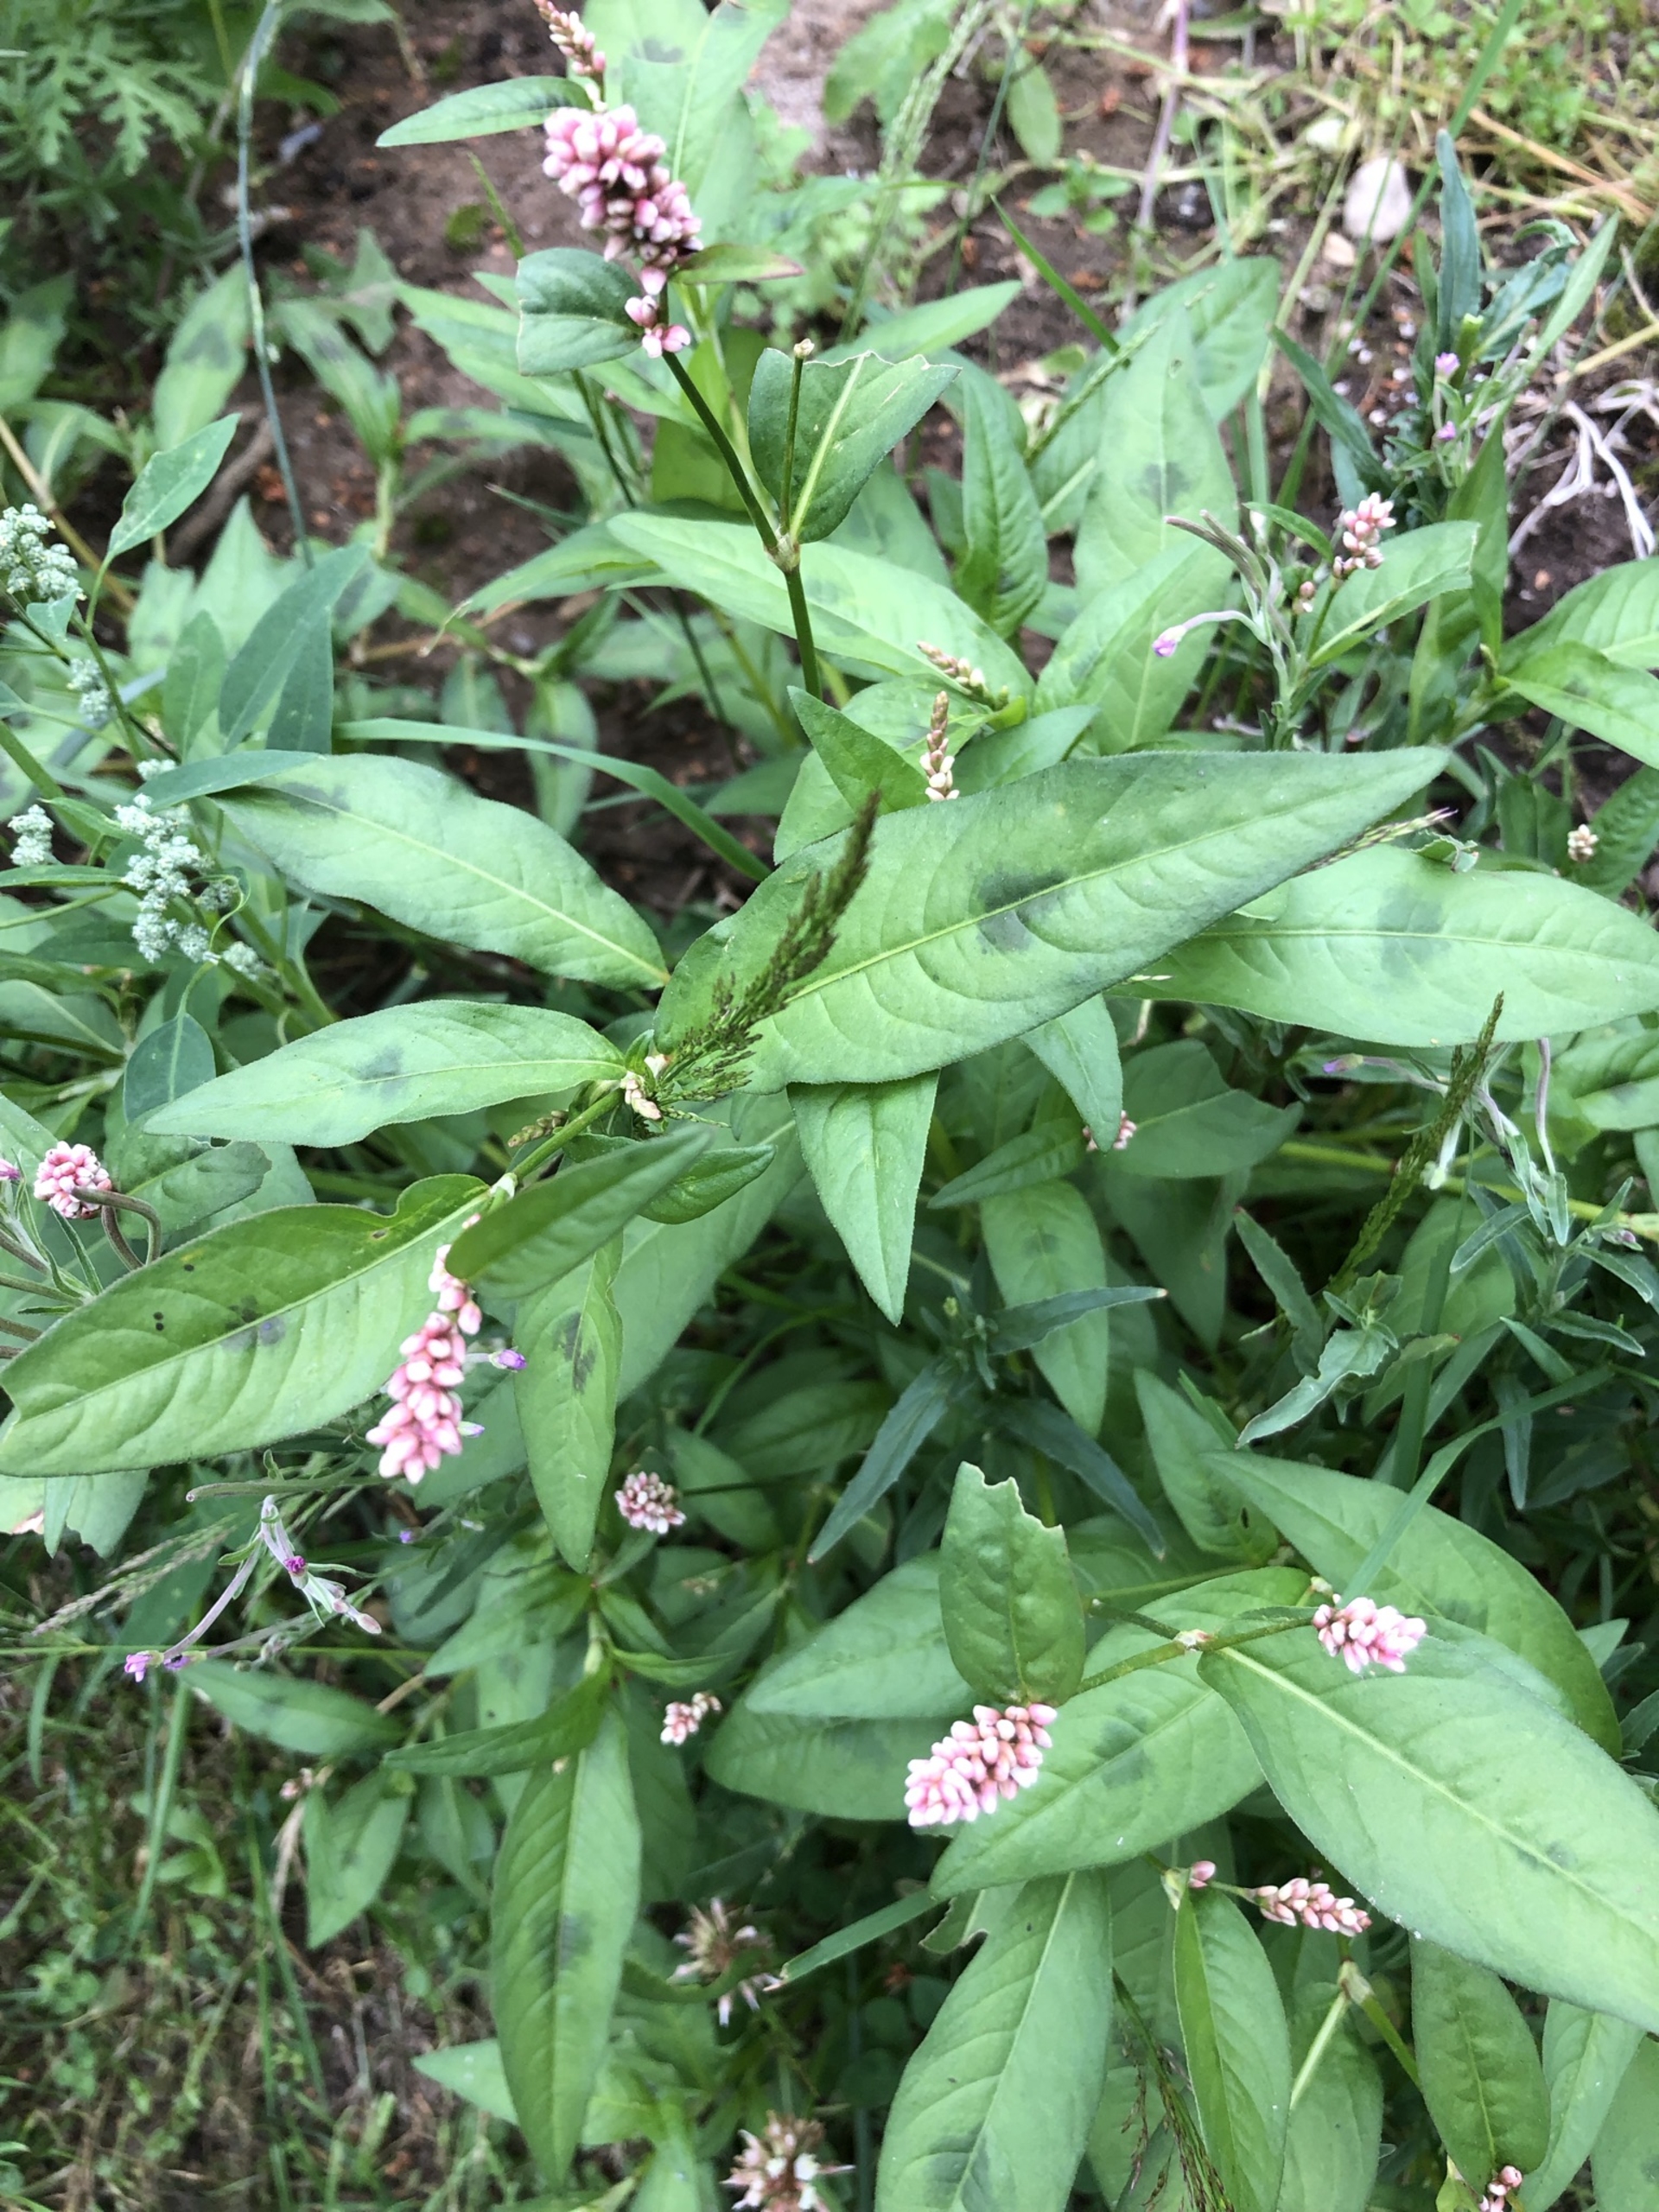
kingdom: Plantae
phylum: Tracheophyta
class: Magnoliopsida
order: Caryophyllales
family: Polygonaceae
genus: Persicaria
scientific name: Persicaria maculosa
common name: Fersken-pileurt
